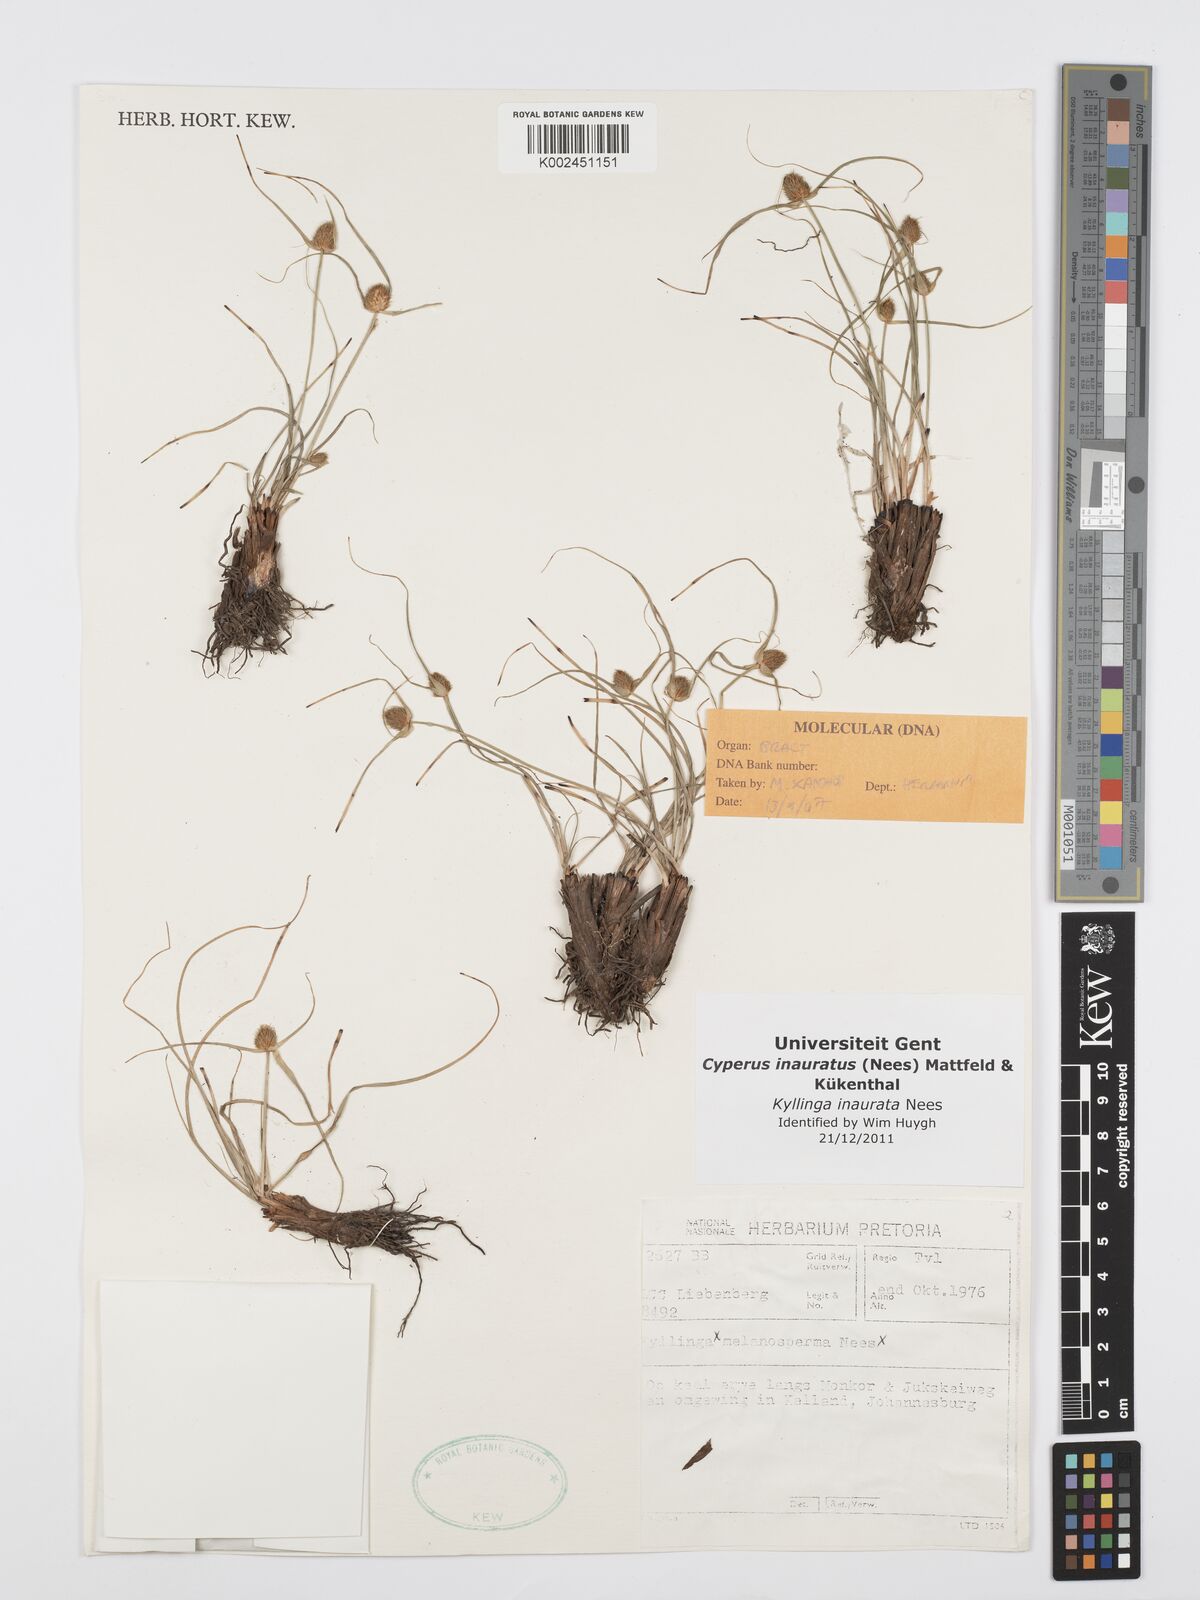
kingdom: Plantae
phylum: Tracheophyta
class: Liliopsida
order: Poales
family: Cyperaceae
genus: Cyperus
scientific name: Cyperus inauratus
